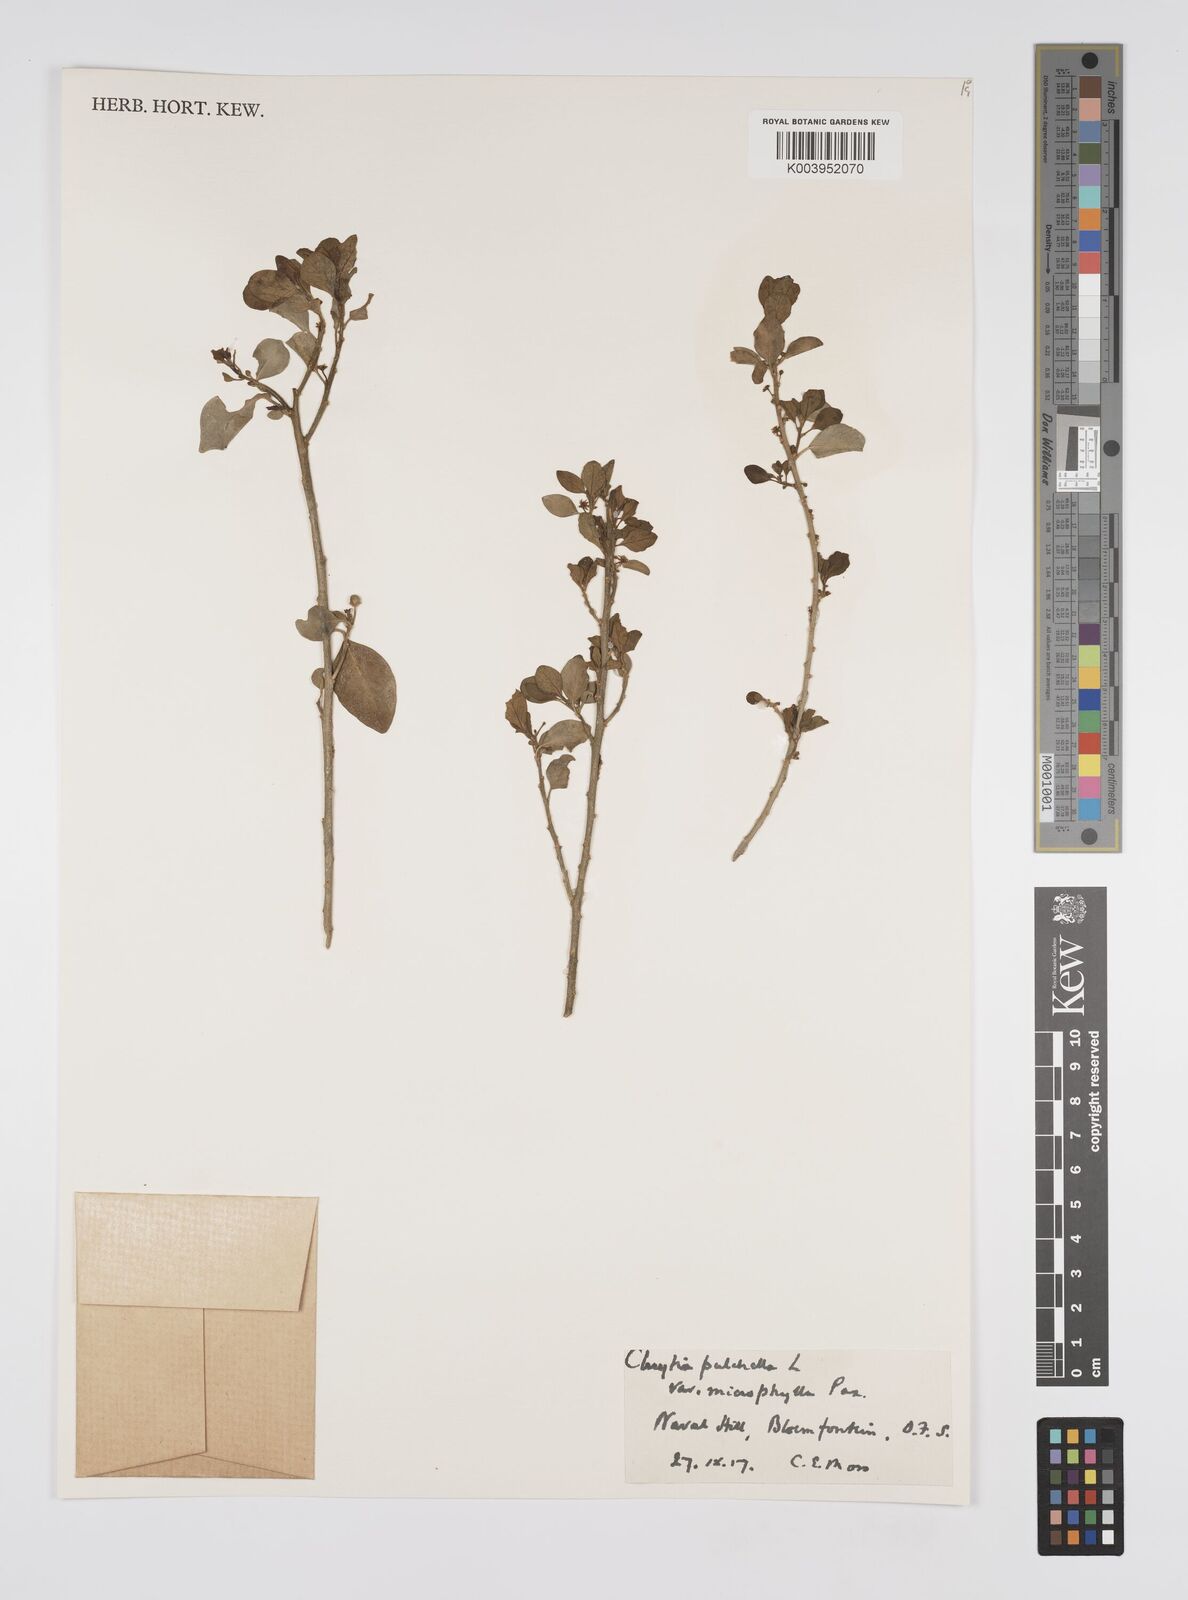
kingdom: Plantae
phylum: Tracheophyta
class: Magnoliopsida
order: Malpighiales
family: Peraceae
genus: Clutia
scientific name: Clutia pulchella
